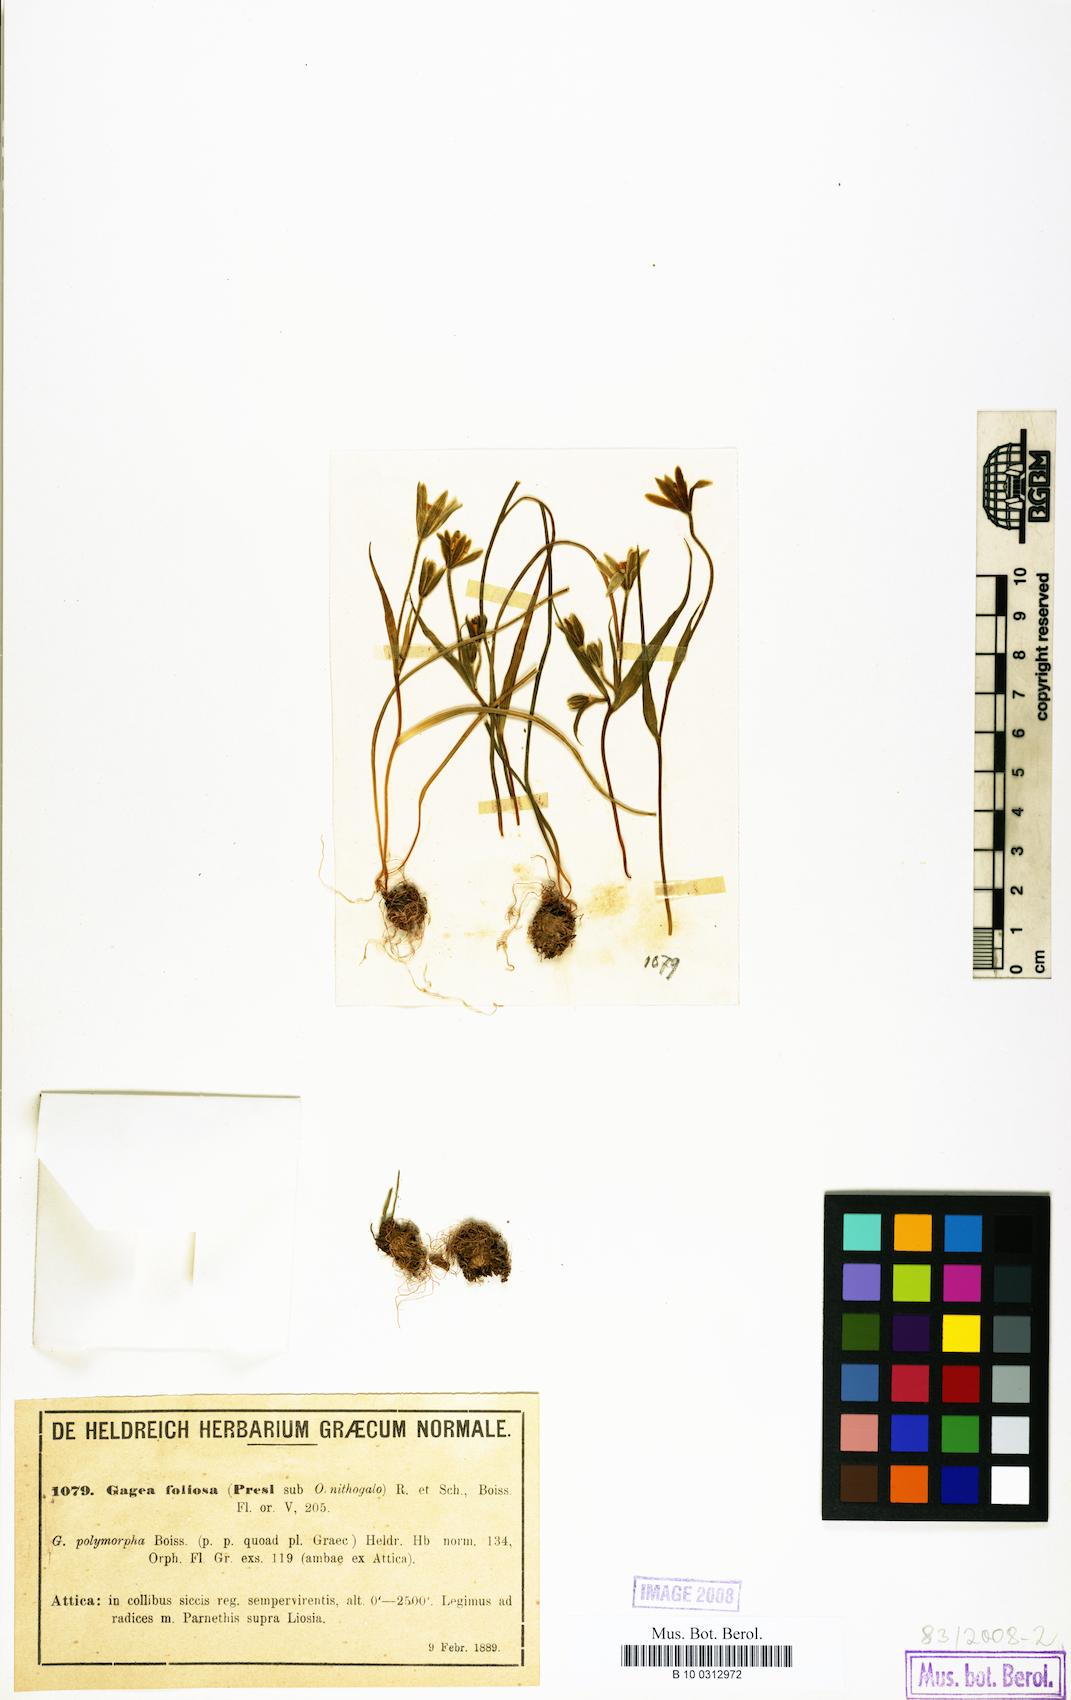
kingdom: Plantae
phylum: Tracheophyta
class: Liliopsida
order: Liliales
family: Liliaceae
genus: Gagea
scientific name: Gagea foliosa
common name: Leafy gagea
